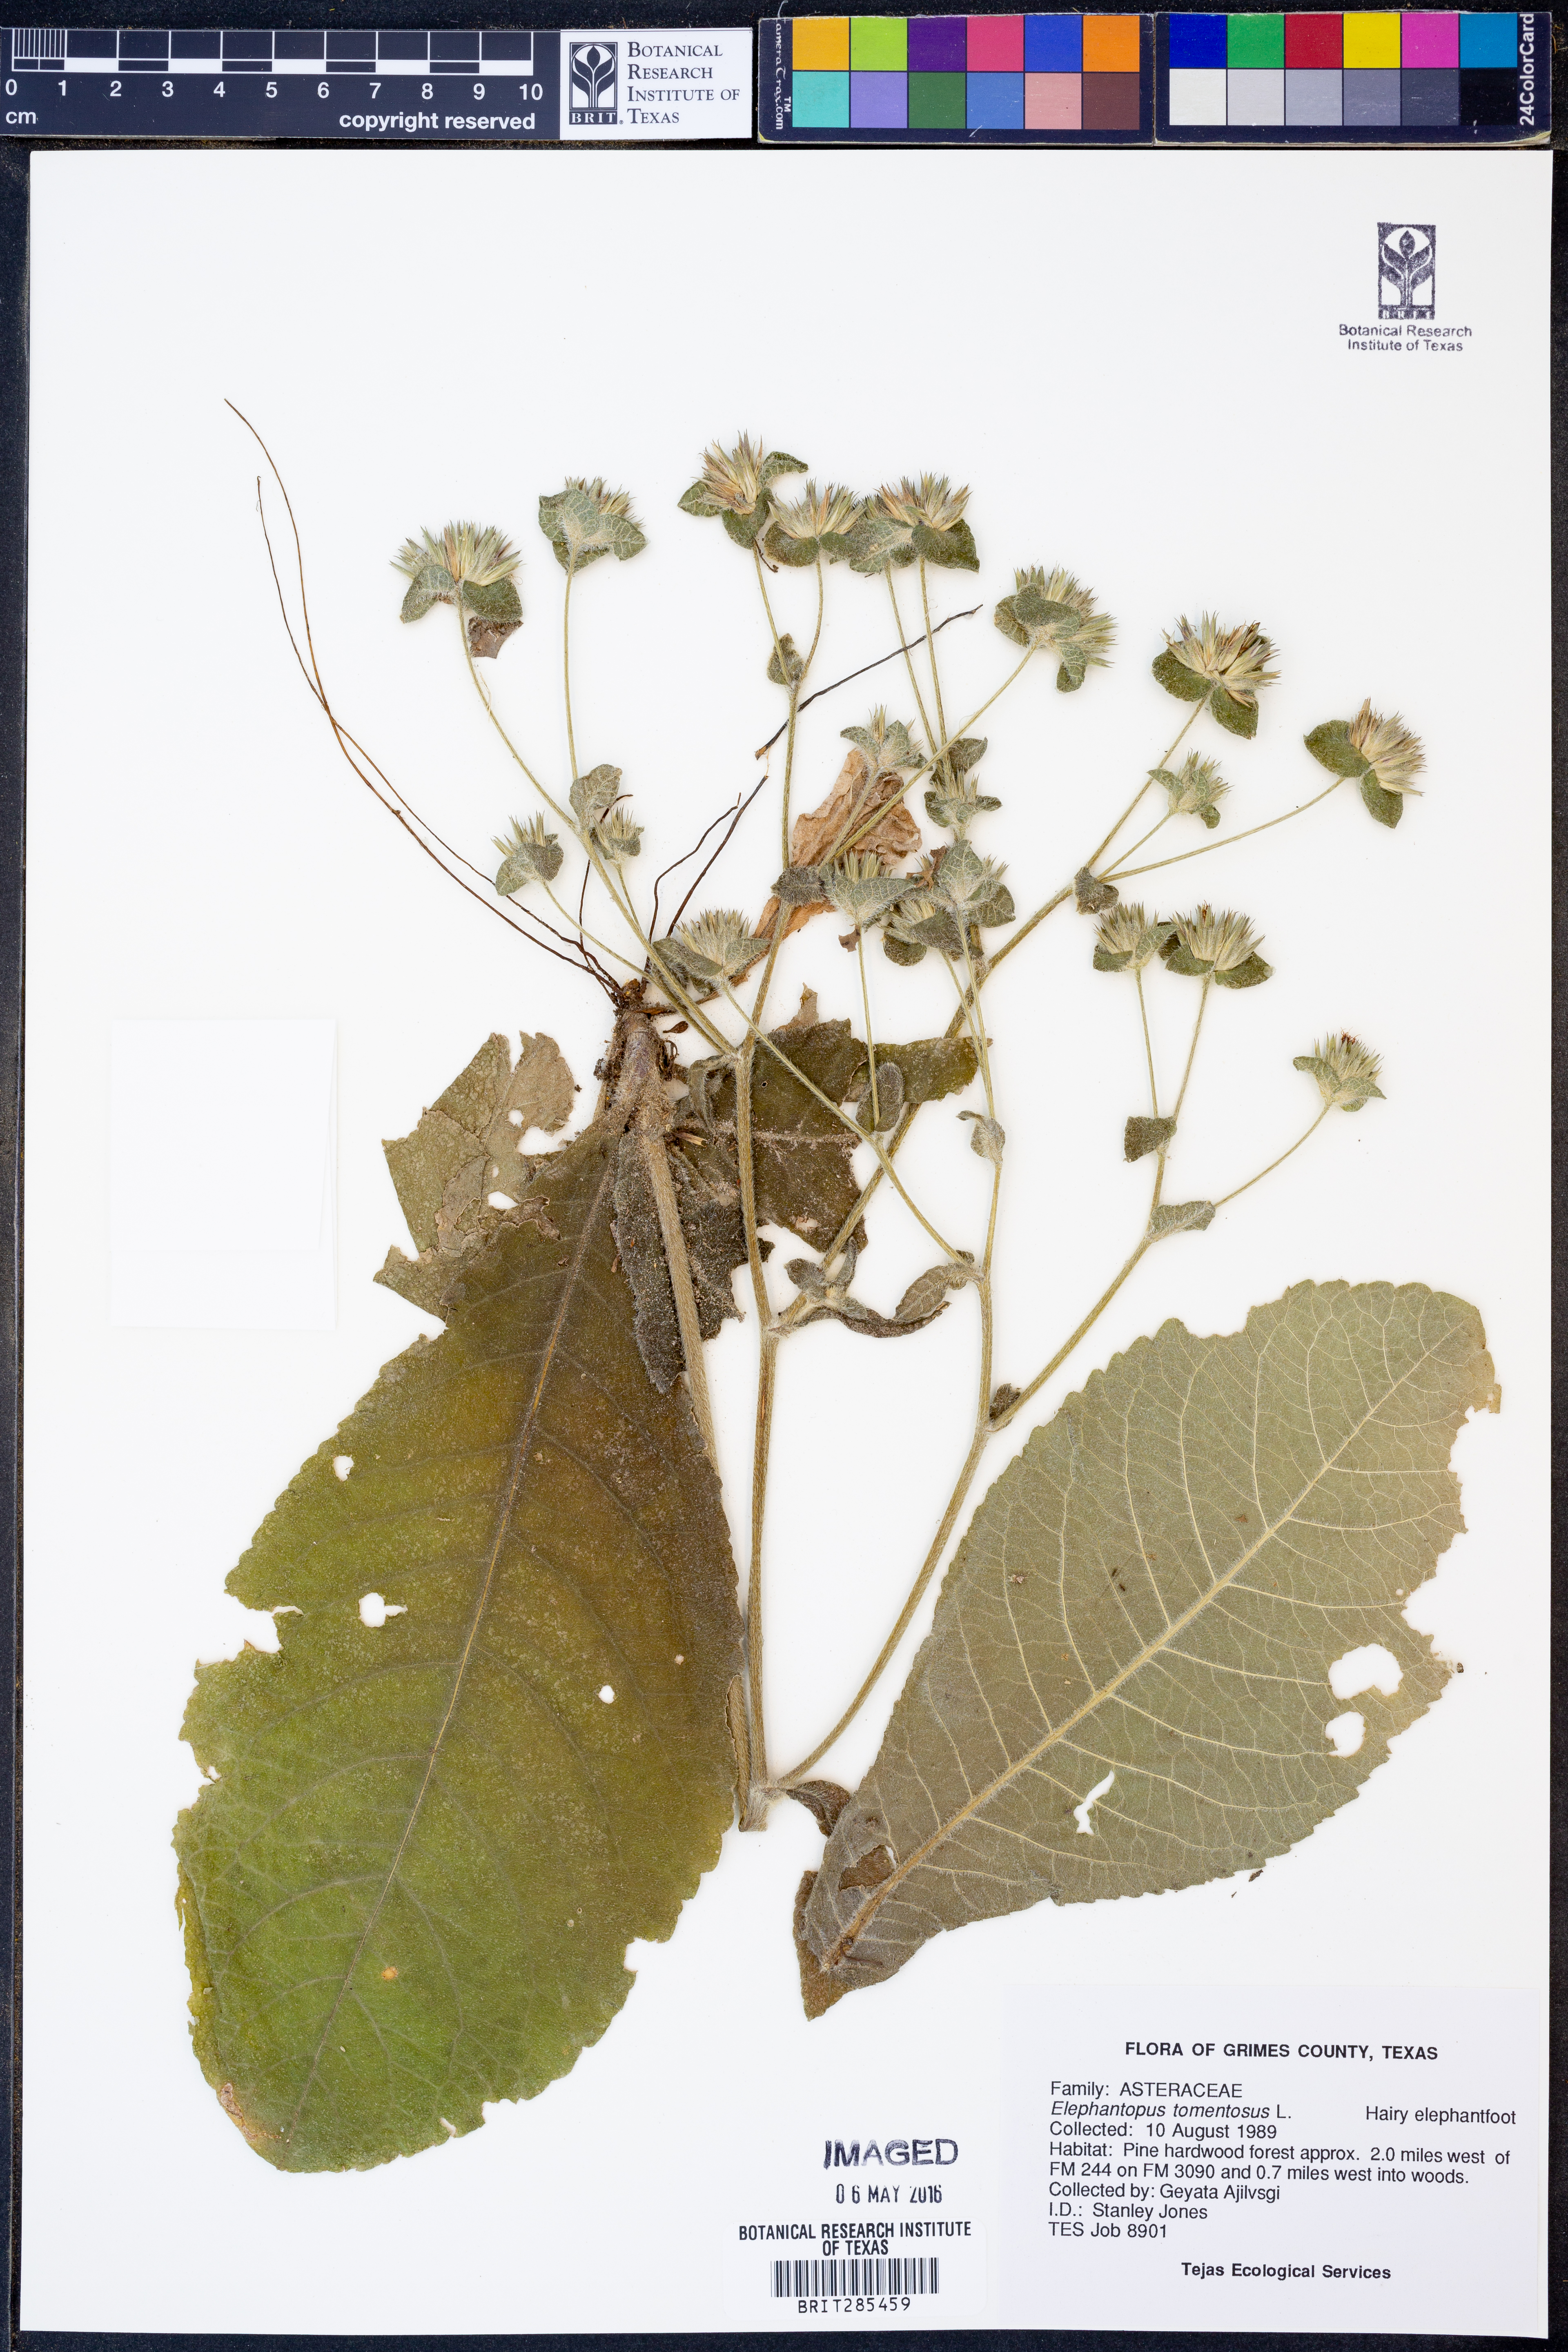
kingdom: Plantae
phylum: Tracheophyta
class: Magnoliopsida
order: Asterales
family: Asteraceae
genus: Elephantopus
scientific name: Elephantopus tomentosus
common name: Tobacco-weed
